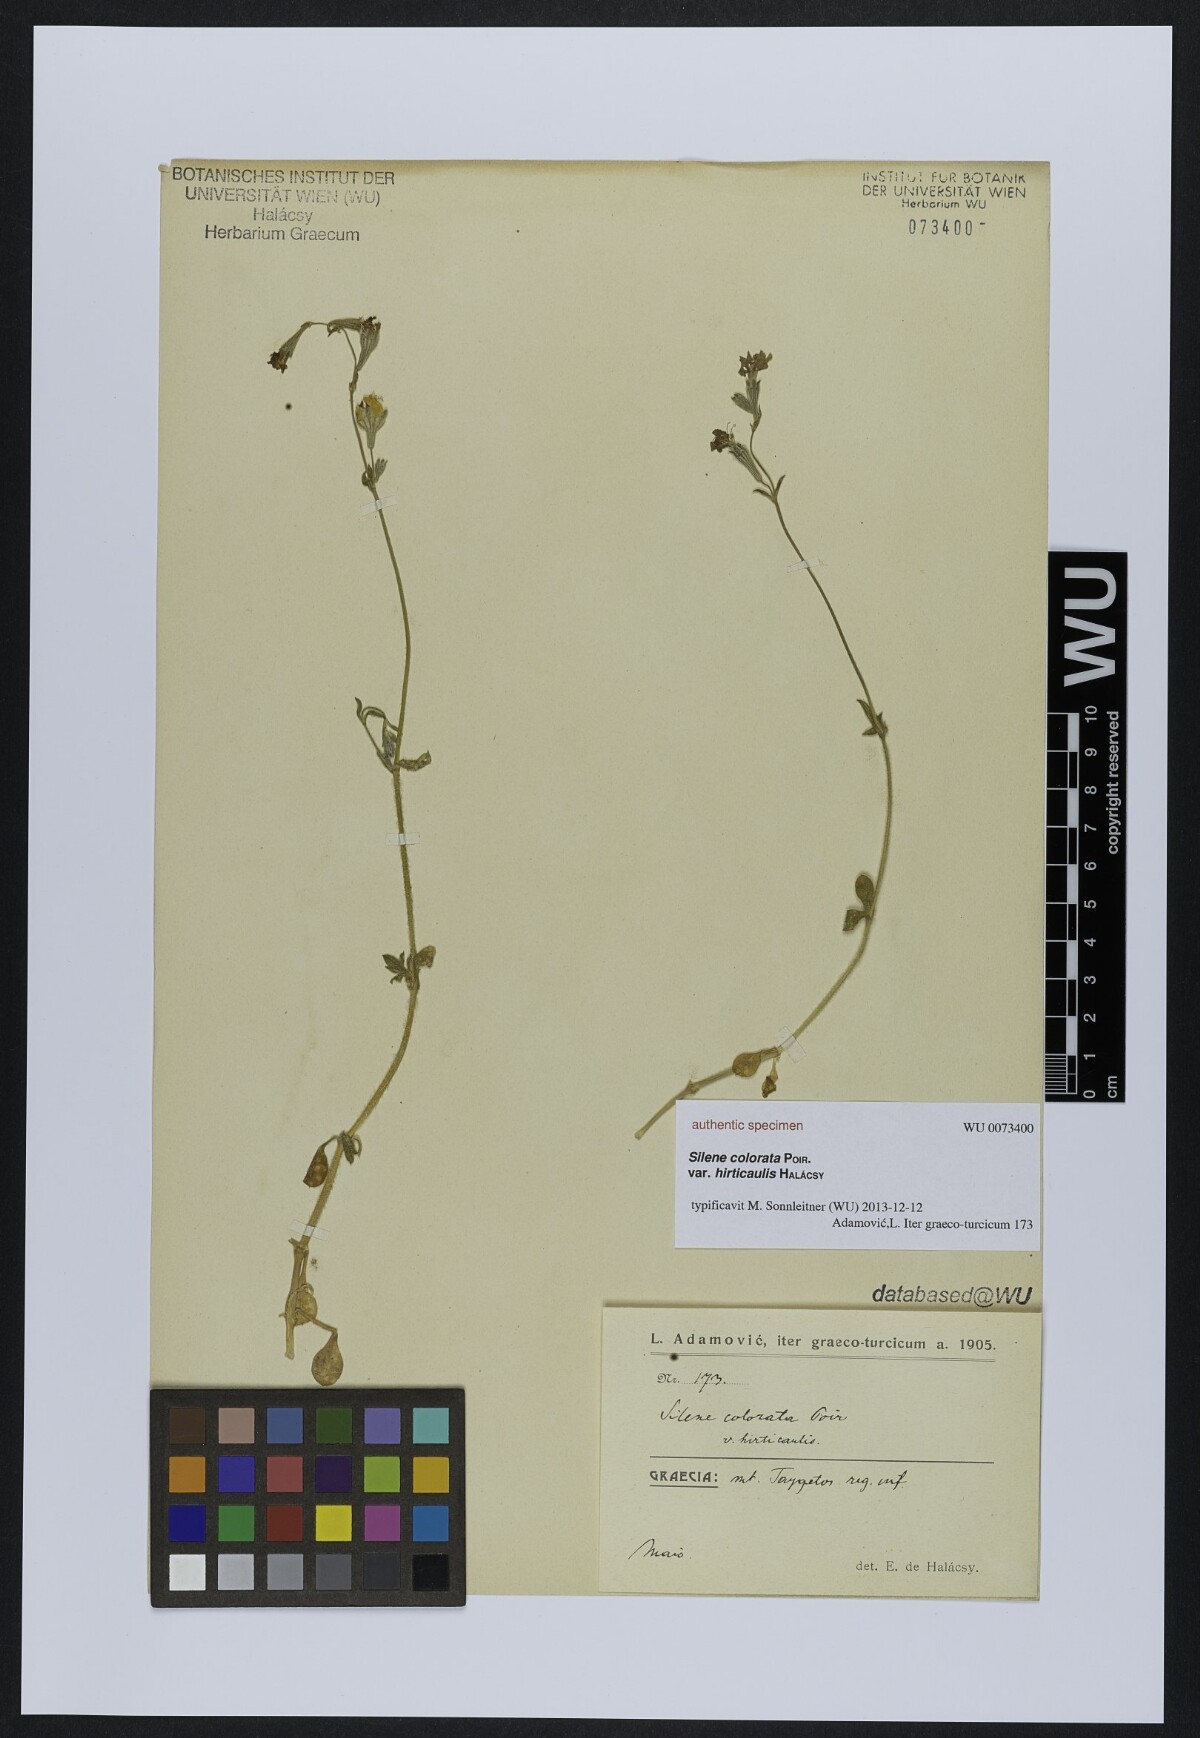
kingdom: Plantae
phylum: Tracheophyta
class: Magnoliopsida
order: Caryophyllales
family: Caryophyllaceae
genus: Silene
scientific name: Silene colorata
